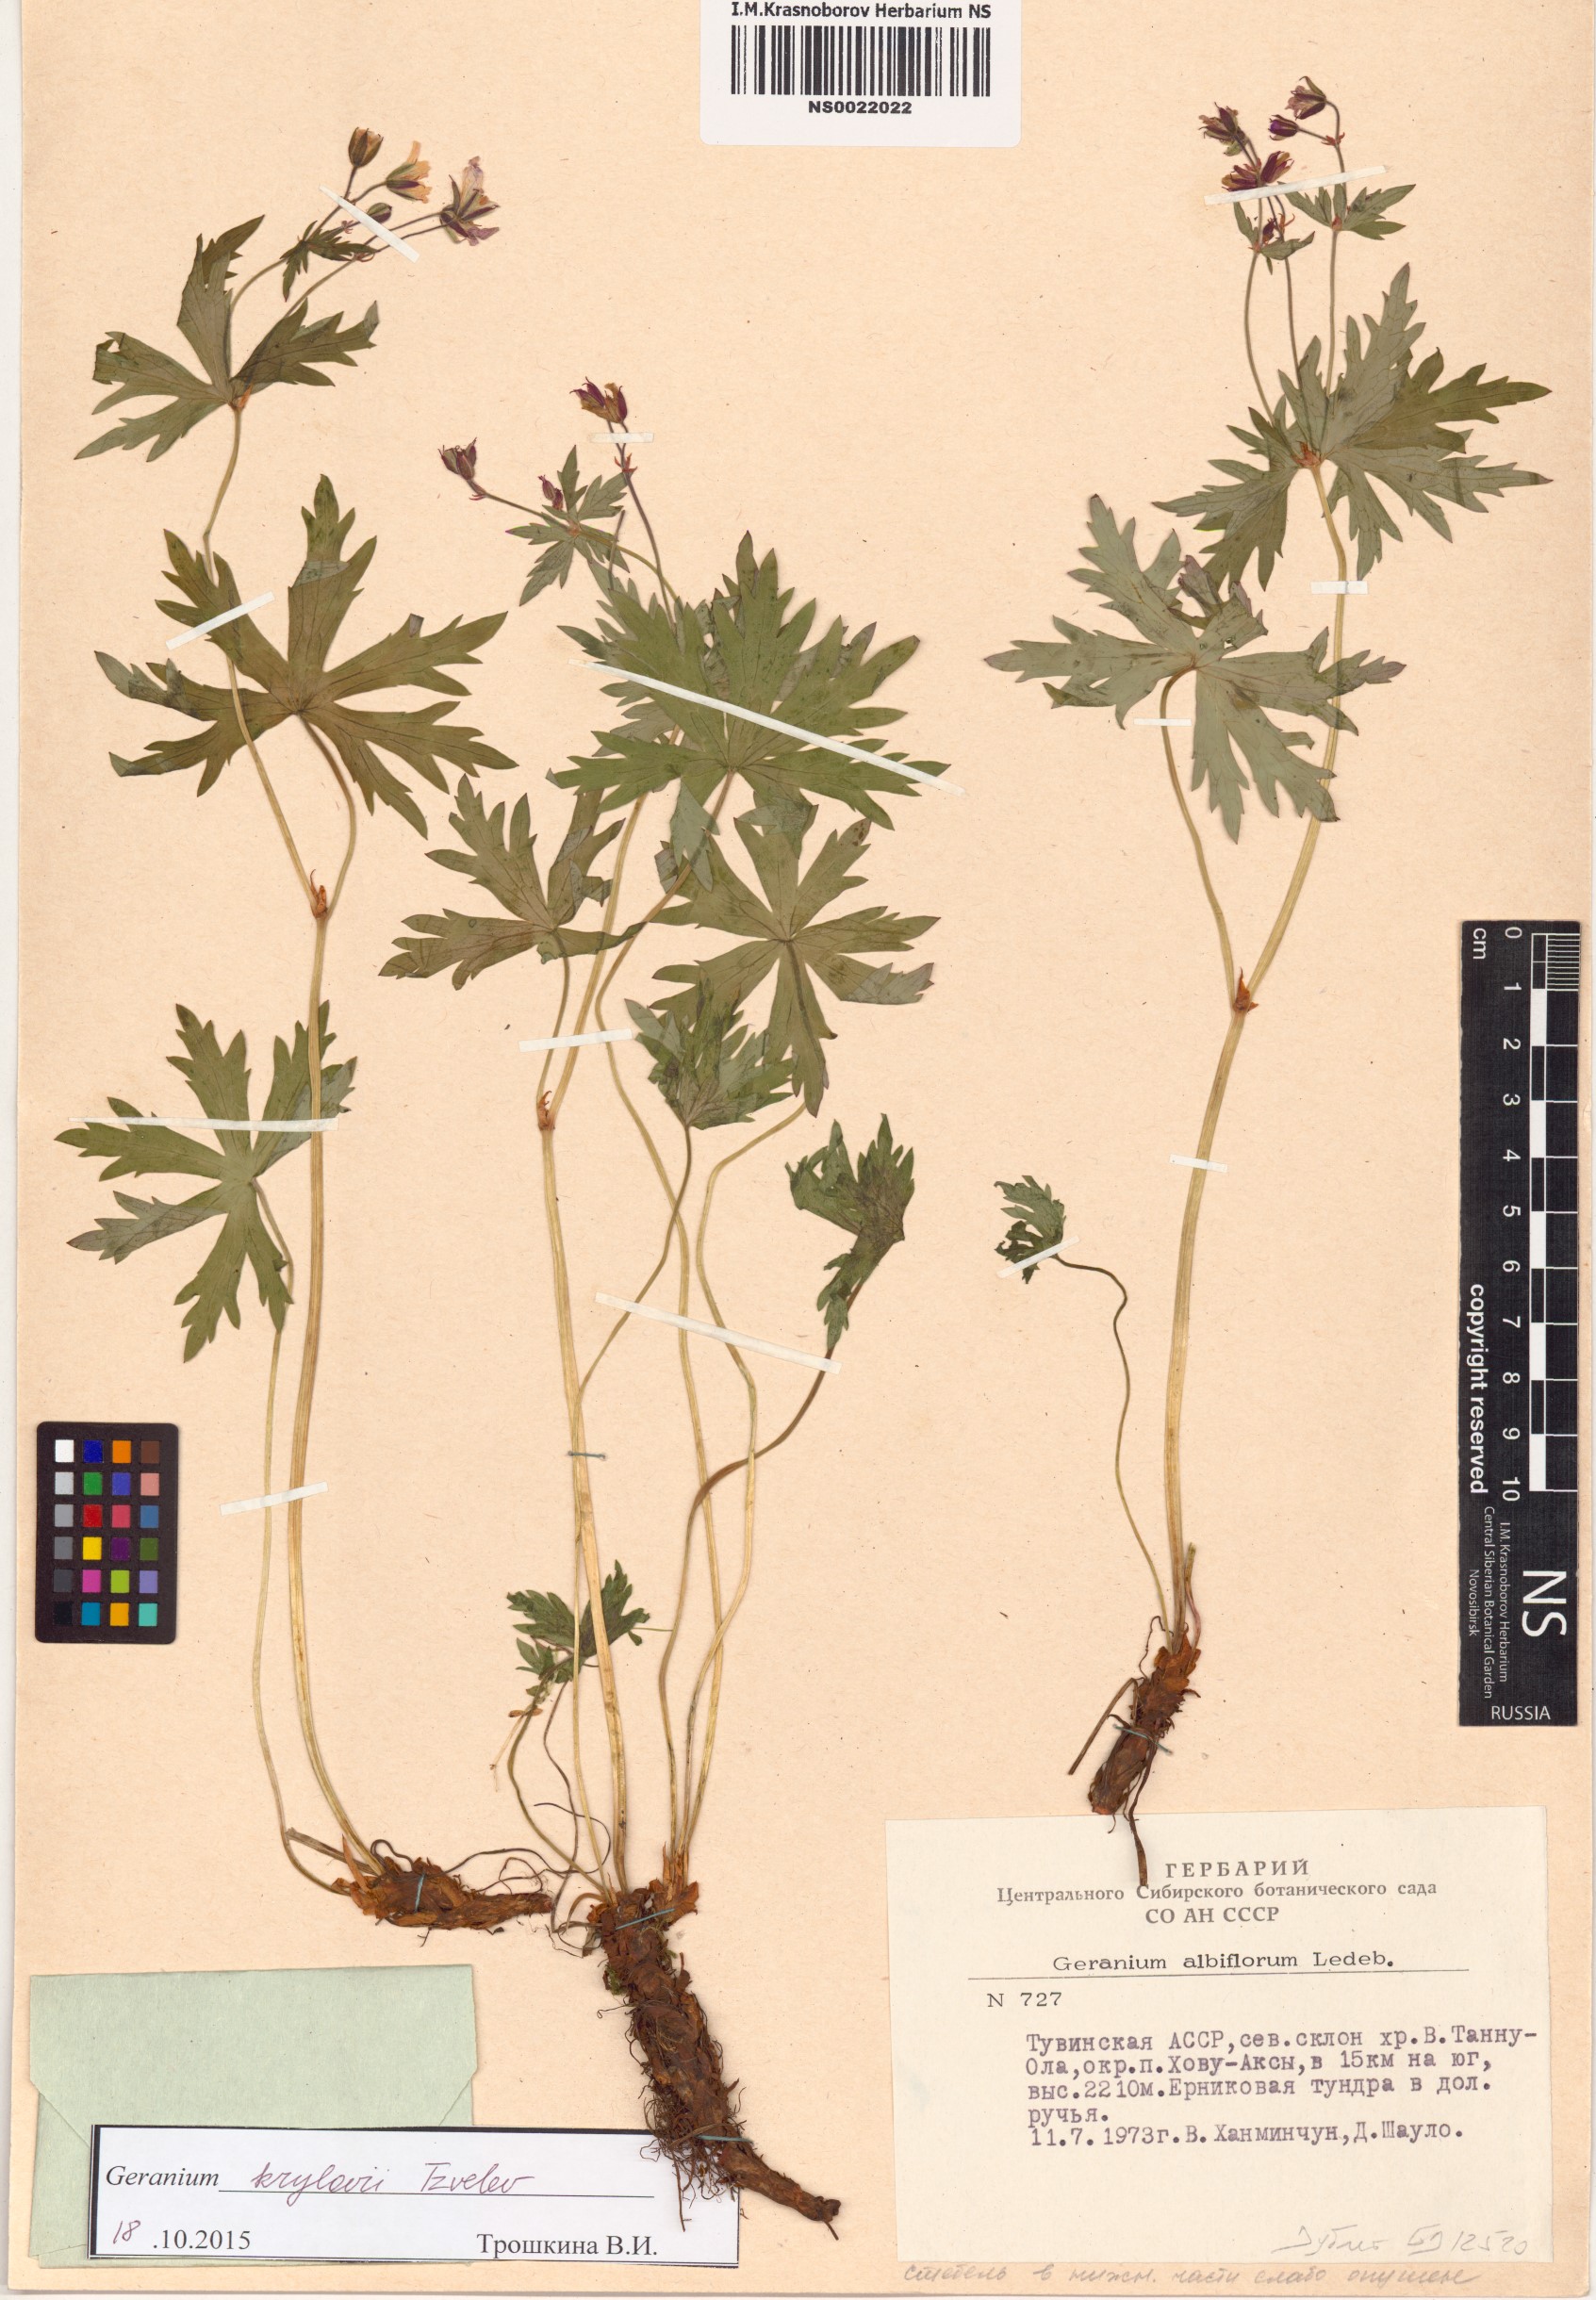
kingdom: Plantae
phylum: Tracheophyta
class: Magnoliopsida
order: Geraniales
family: Geraniaceae
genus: Geranium
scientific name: Geranium sylvaticum
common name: Wood crane's-bill
